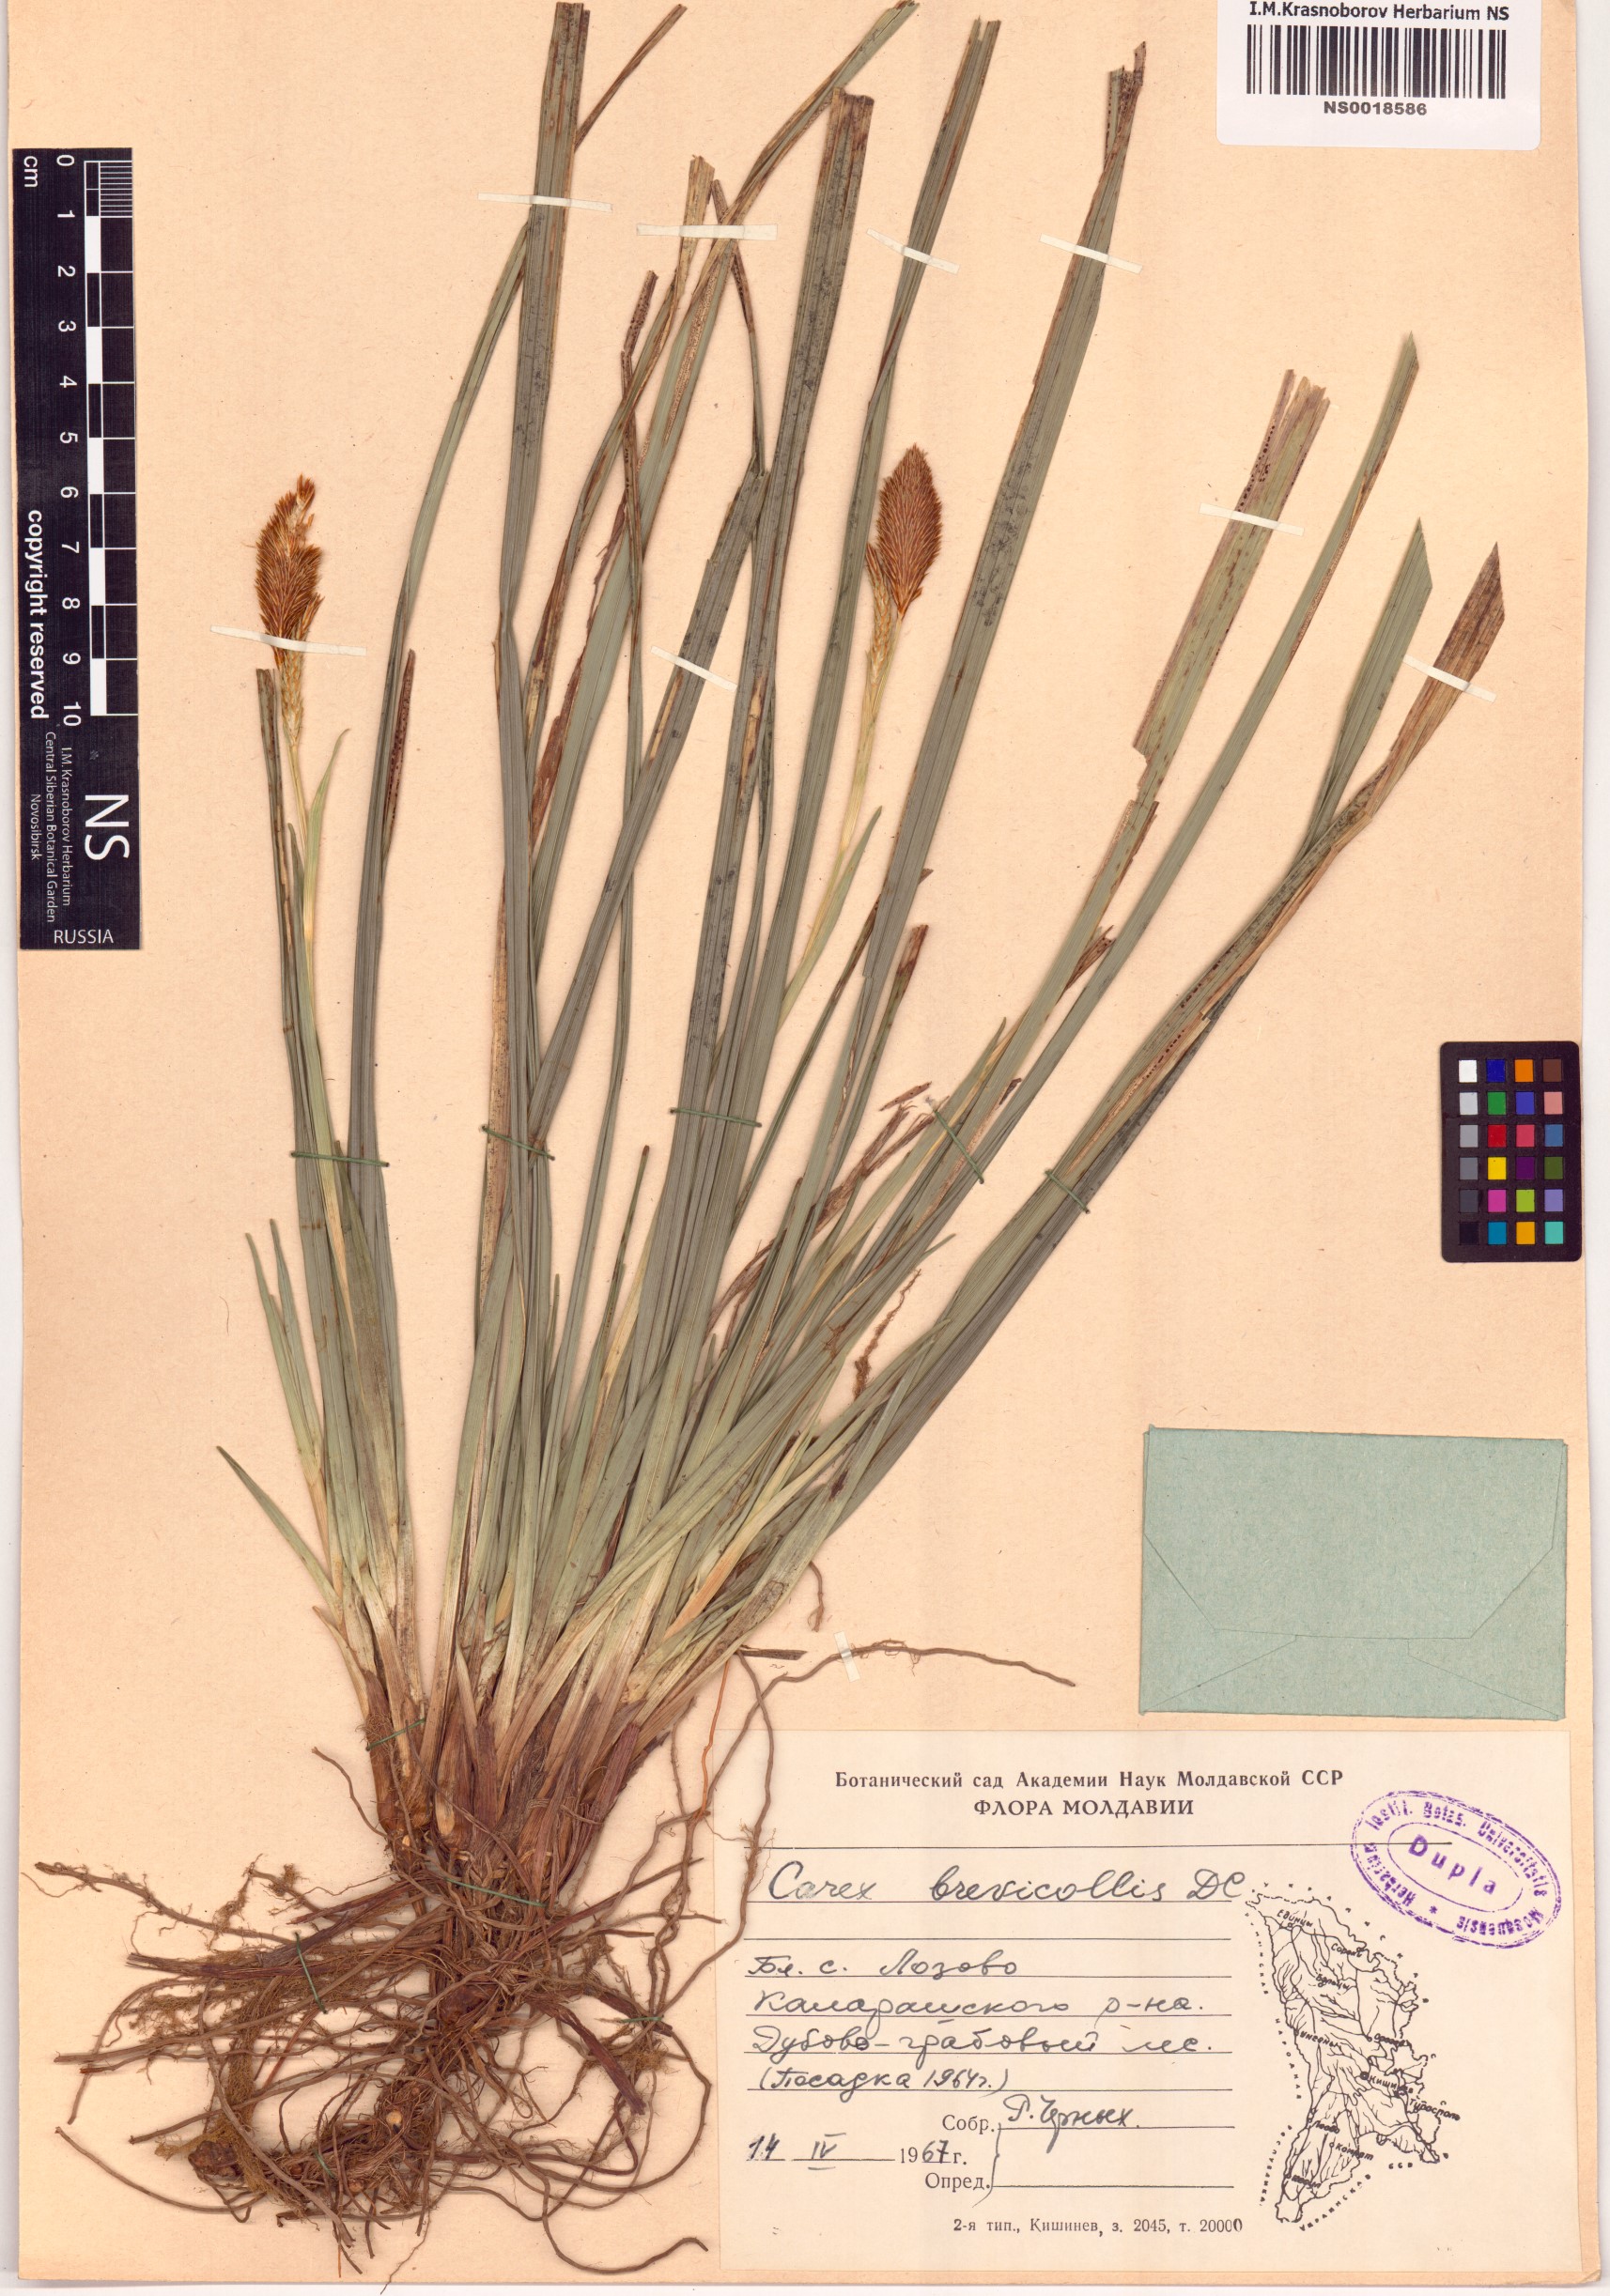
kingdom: Plantae
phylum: Tracheophyta
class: Liliopsida
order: Poales
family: Cyperaceae
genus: Carex
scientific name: Carex brevicollis
